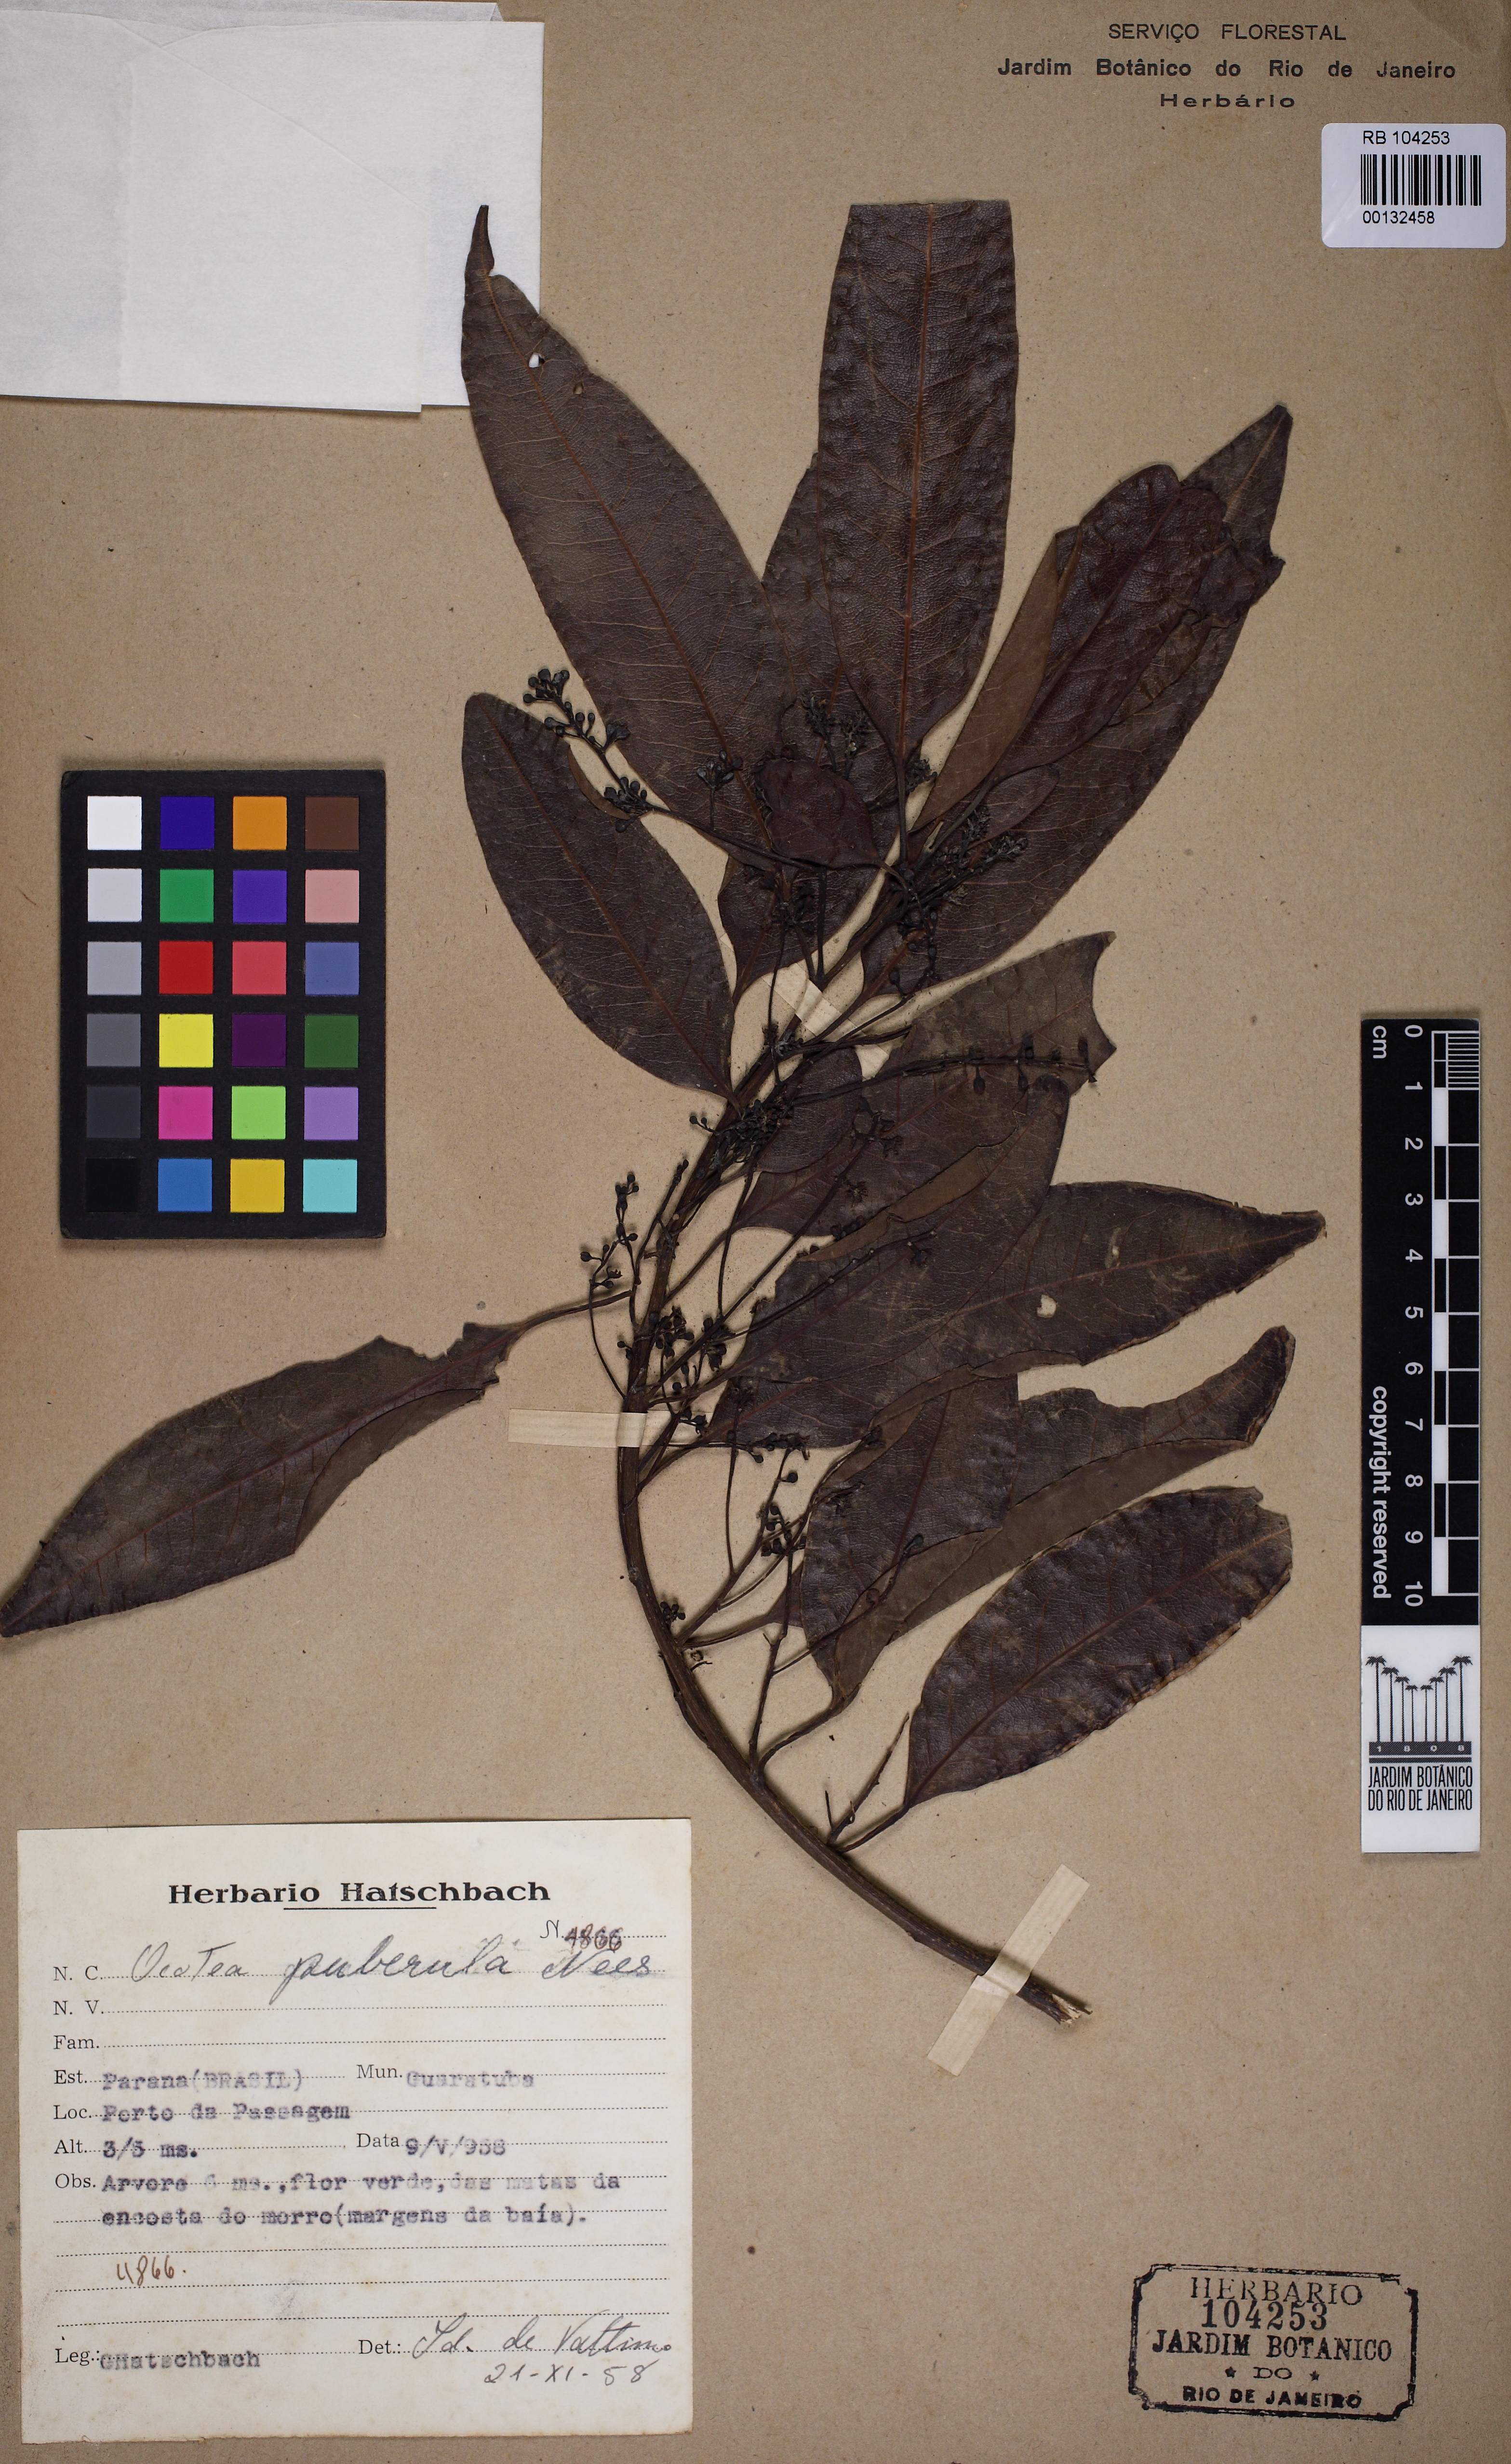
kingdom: Plantae
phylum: Tracheophyta
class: Magnoliopsida
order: Laurales
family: Lauraceae
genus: Ocotea
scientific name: Ocotea puberula
